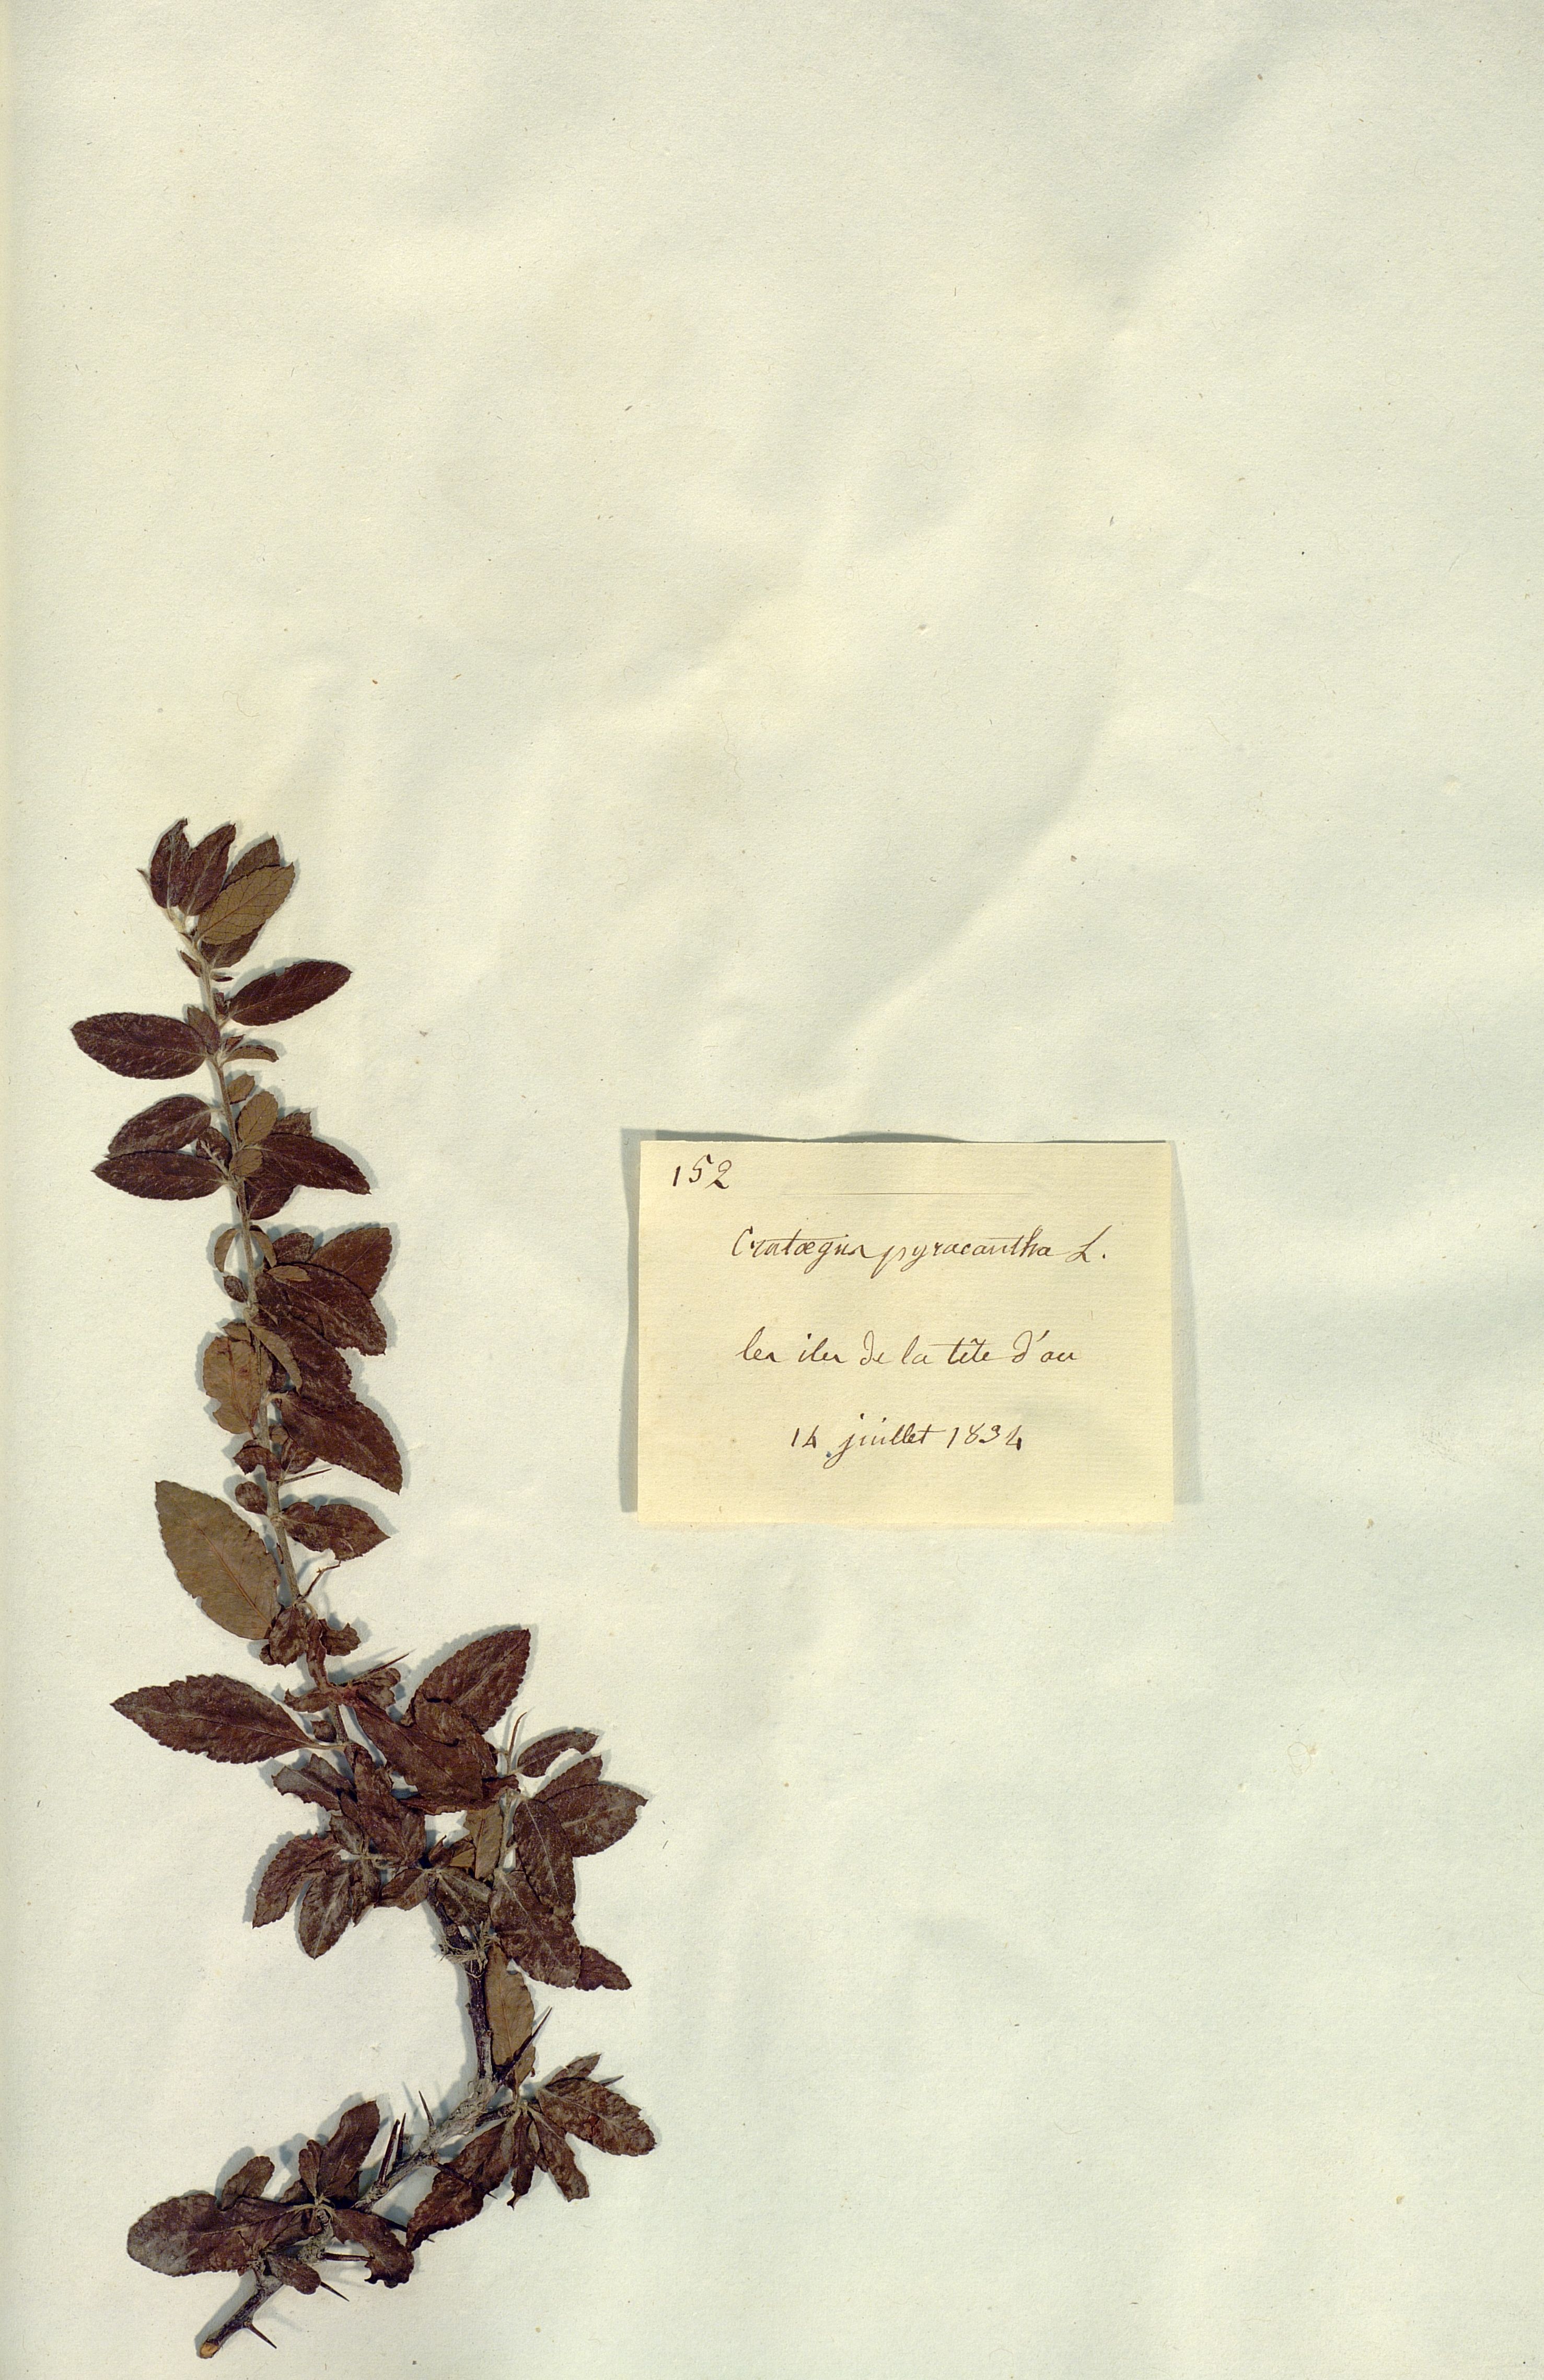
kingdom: Plantae
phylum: Tracheophyta
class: Magnoliopsida
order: Rosales
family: Rosaceae
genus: Pyracantha
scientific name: Pyracantha
